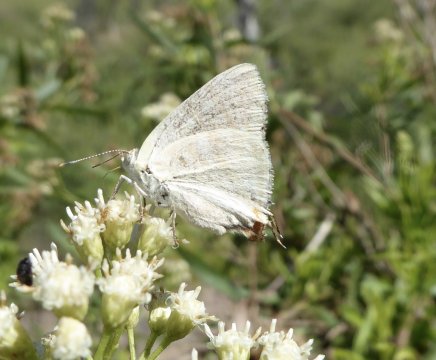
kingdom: Animalia
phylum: Arthropoda
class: Insecta
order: Lepidoptera
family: Lycaenidae
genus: Dolymorpha
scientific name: Dolymorpha jada
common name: Creamy Stripe-Streak
